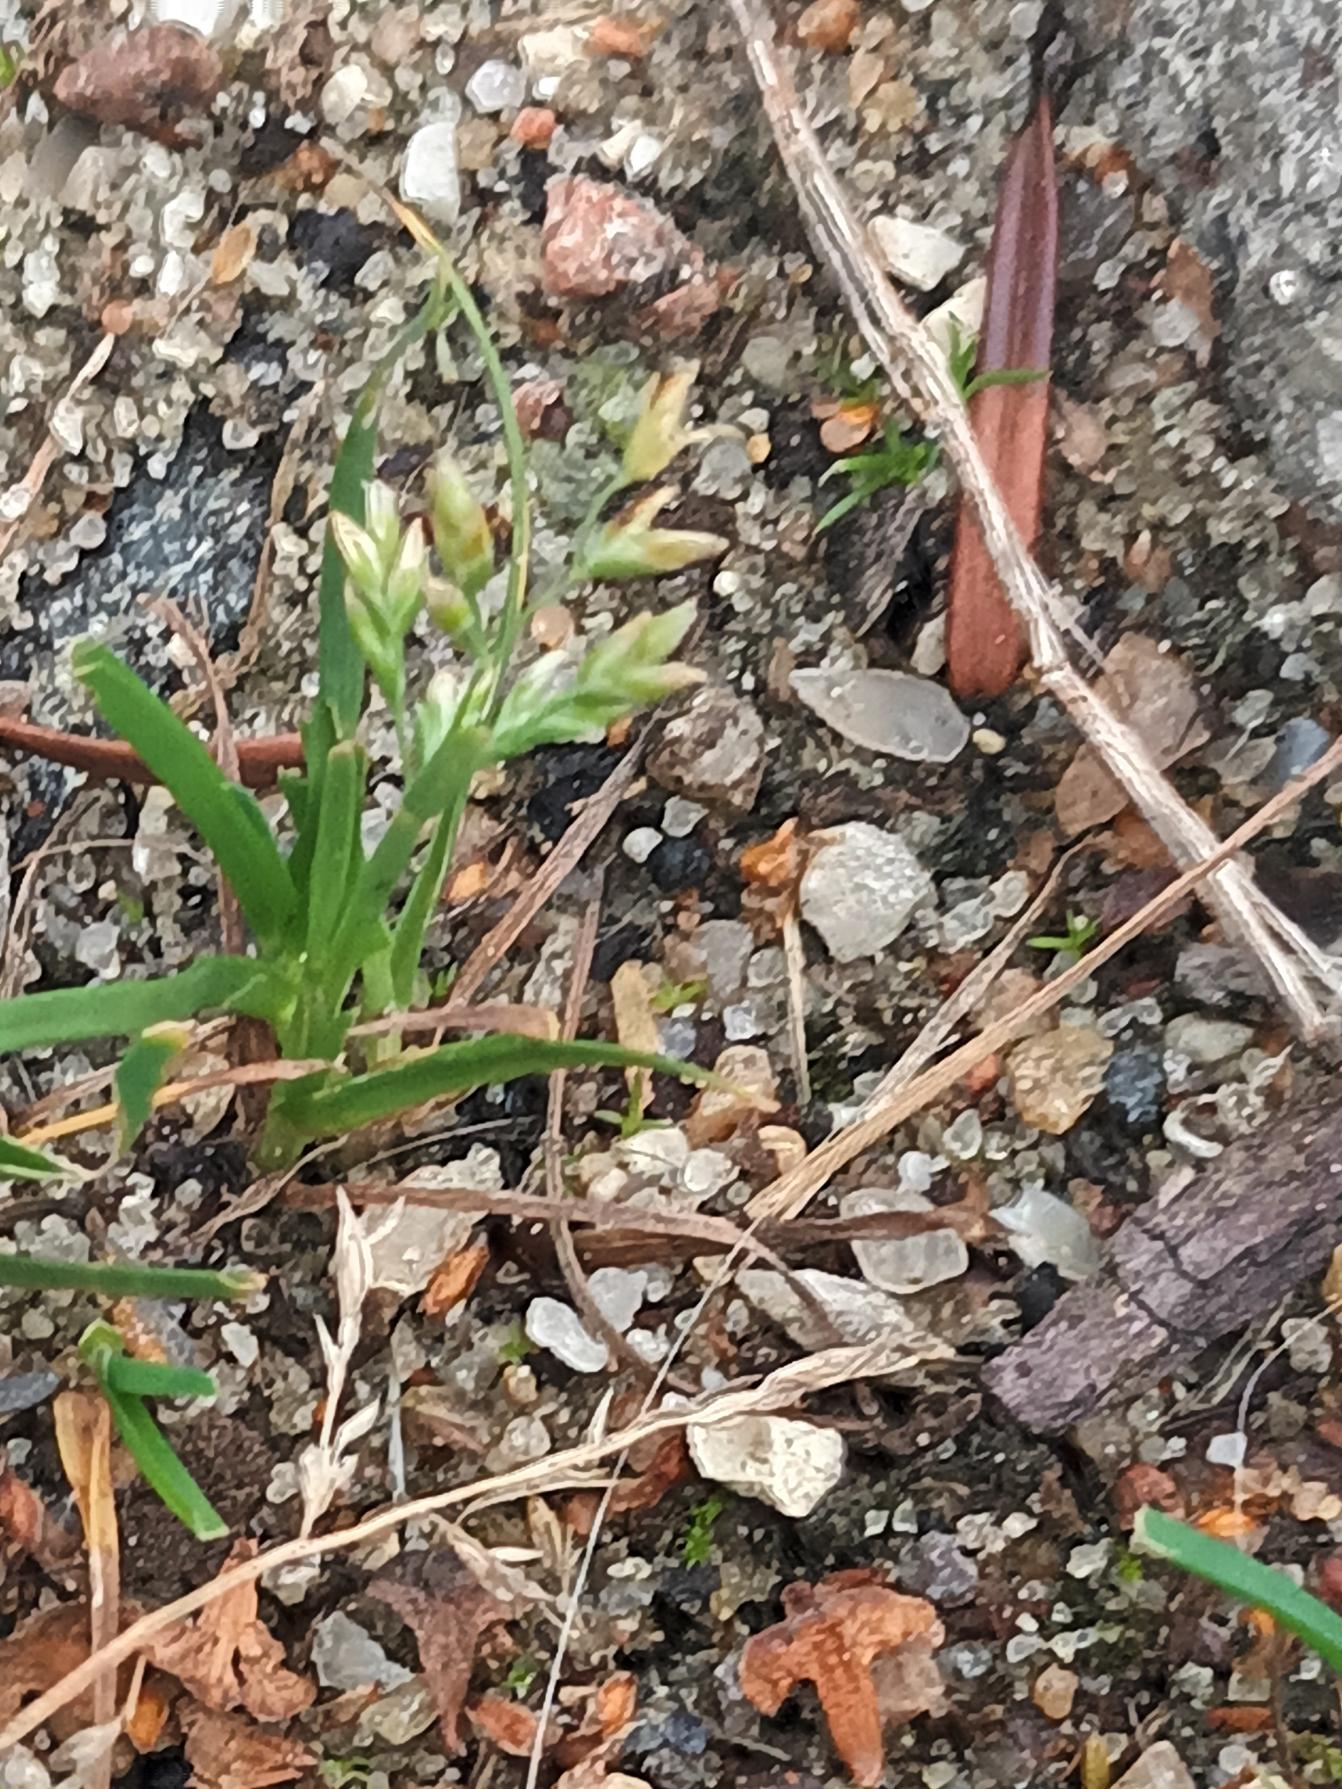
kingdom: Plantae
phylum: Tracheophyta
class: Liliopsida
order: Poales
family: Poaceae
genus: Poa
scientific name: Poa annua
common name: Enårig rapgræs
